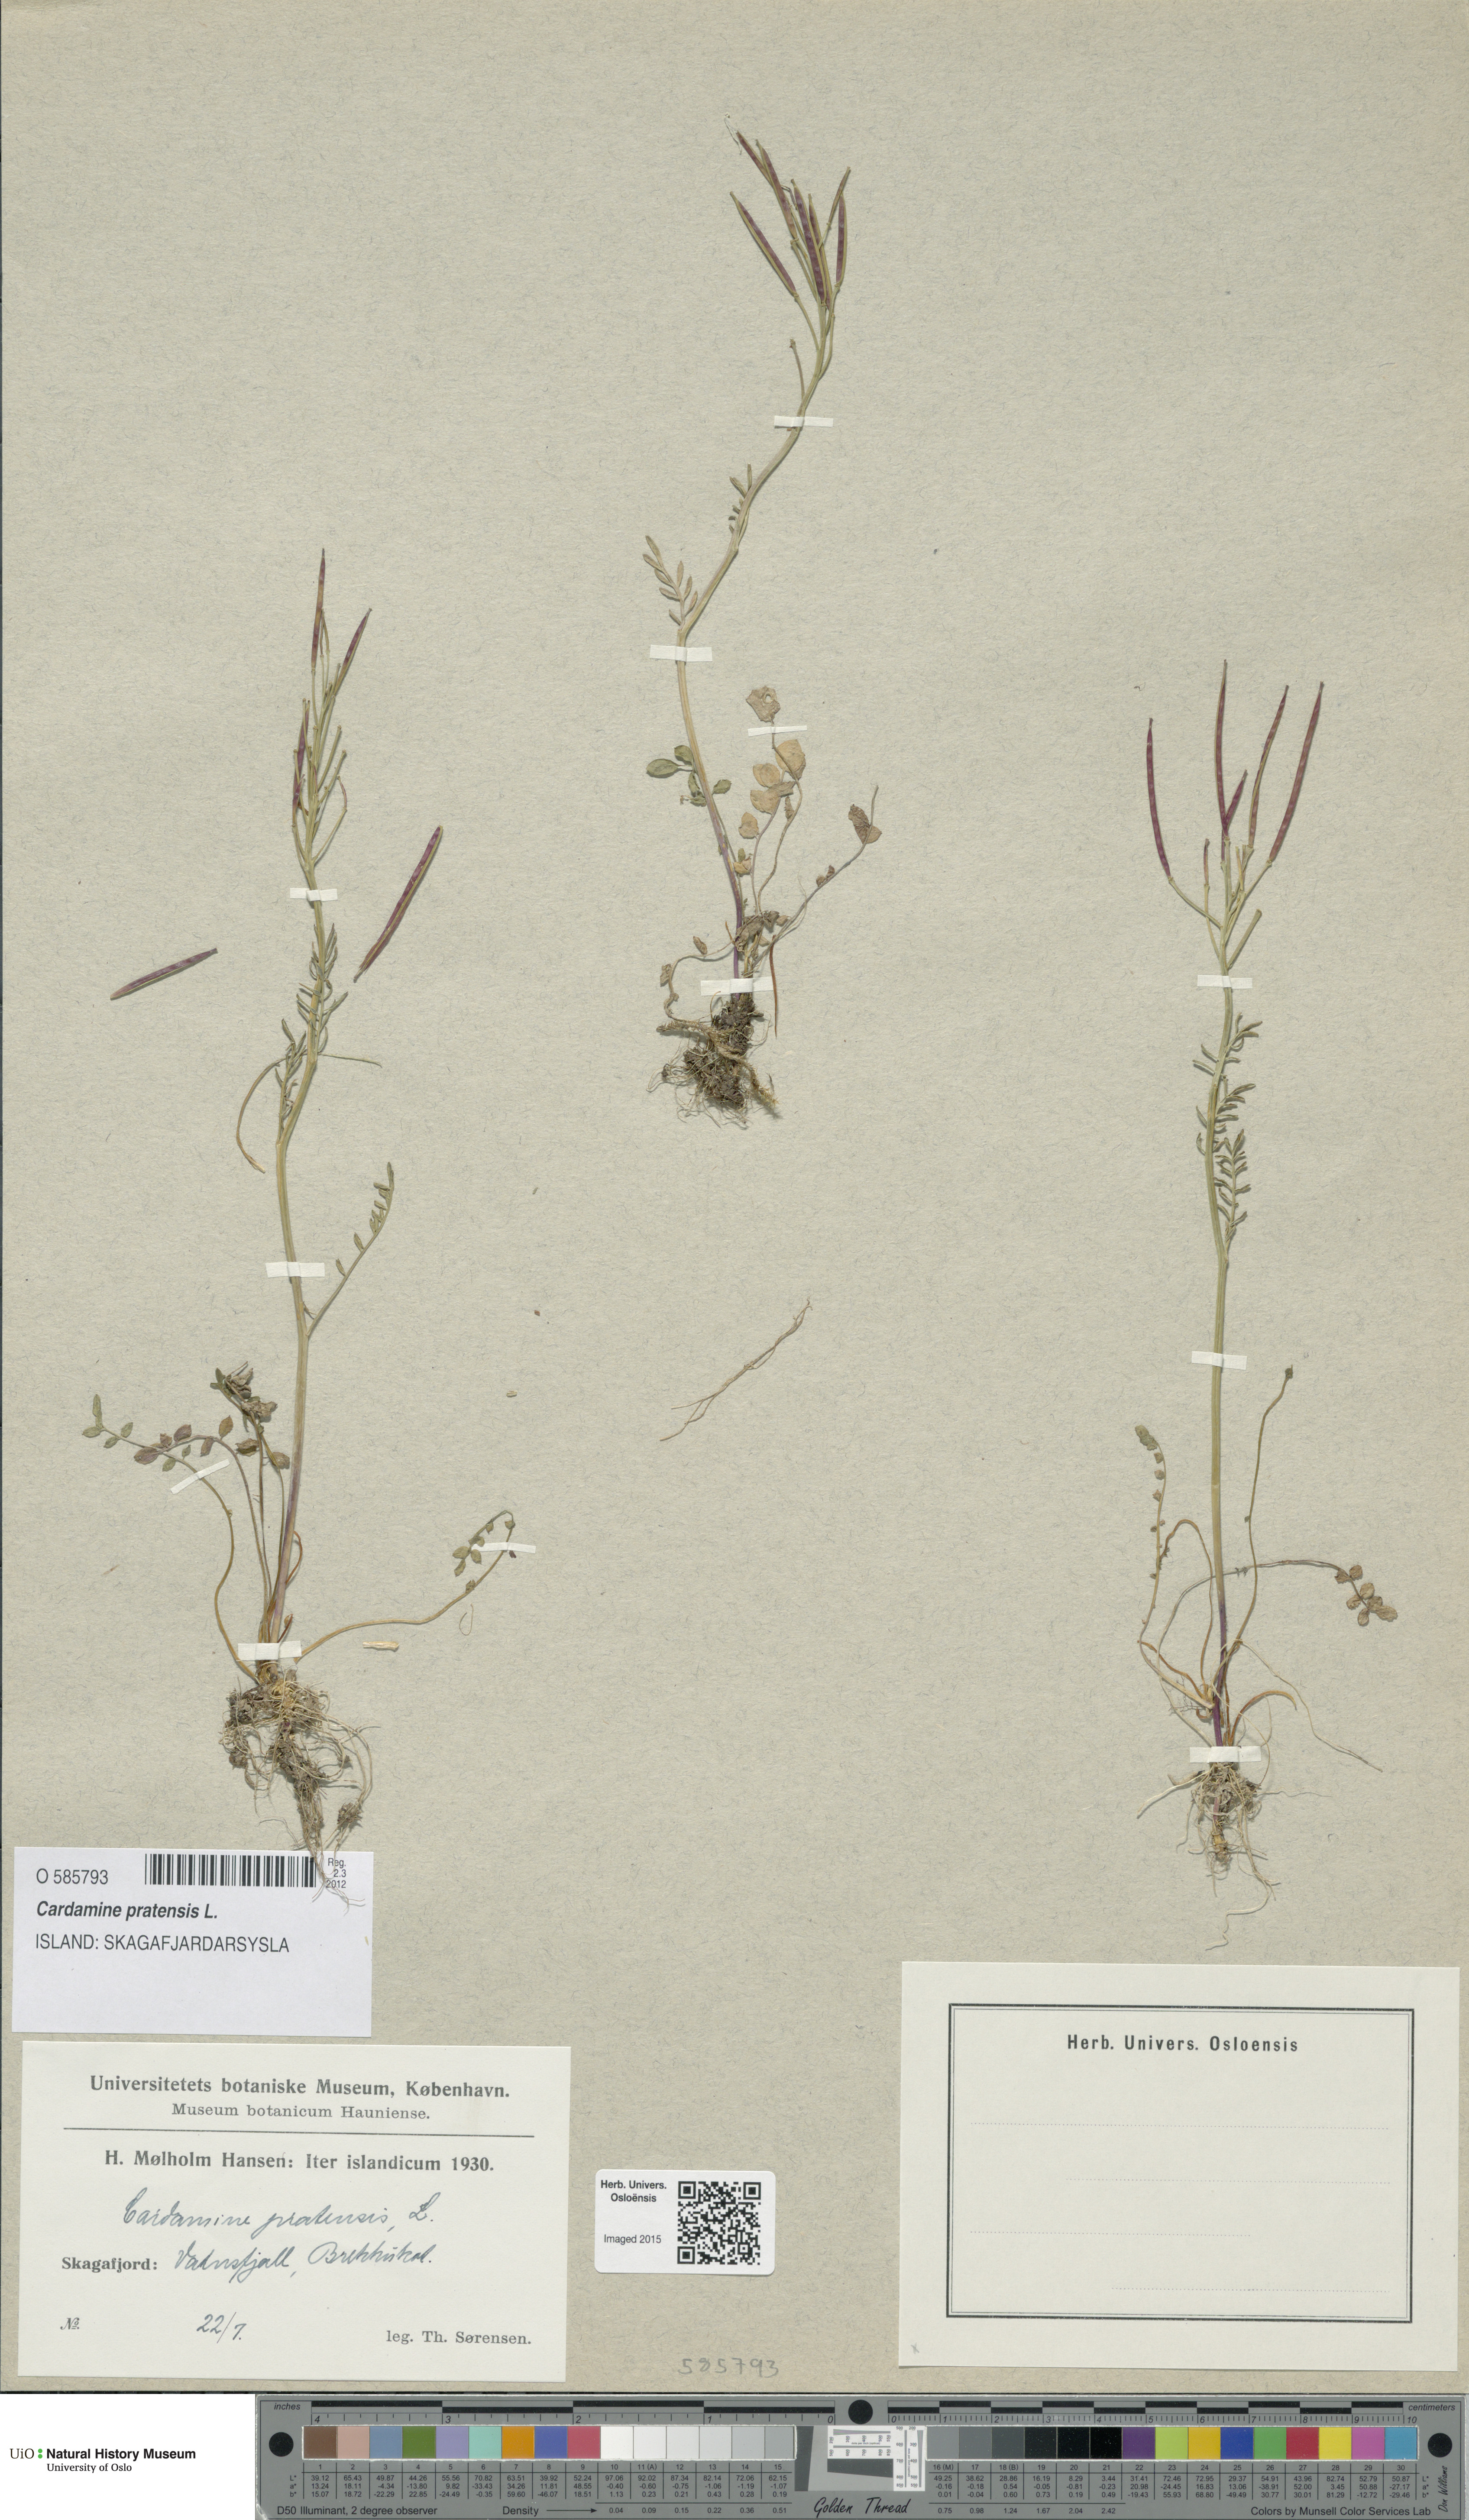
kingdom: Plantae
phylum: Tracheophyta
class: Magnoliopsida
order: Brassicales
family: Brassicaceae
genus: Cardamine
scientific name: Cardamine pratensis
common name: Cuckoo flower
